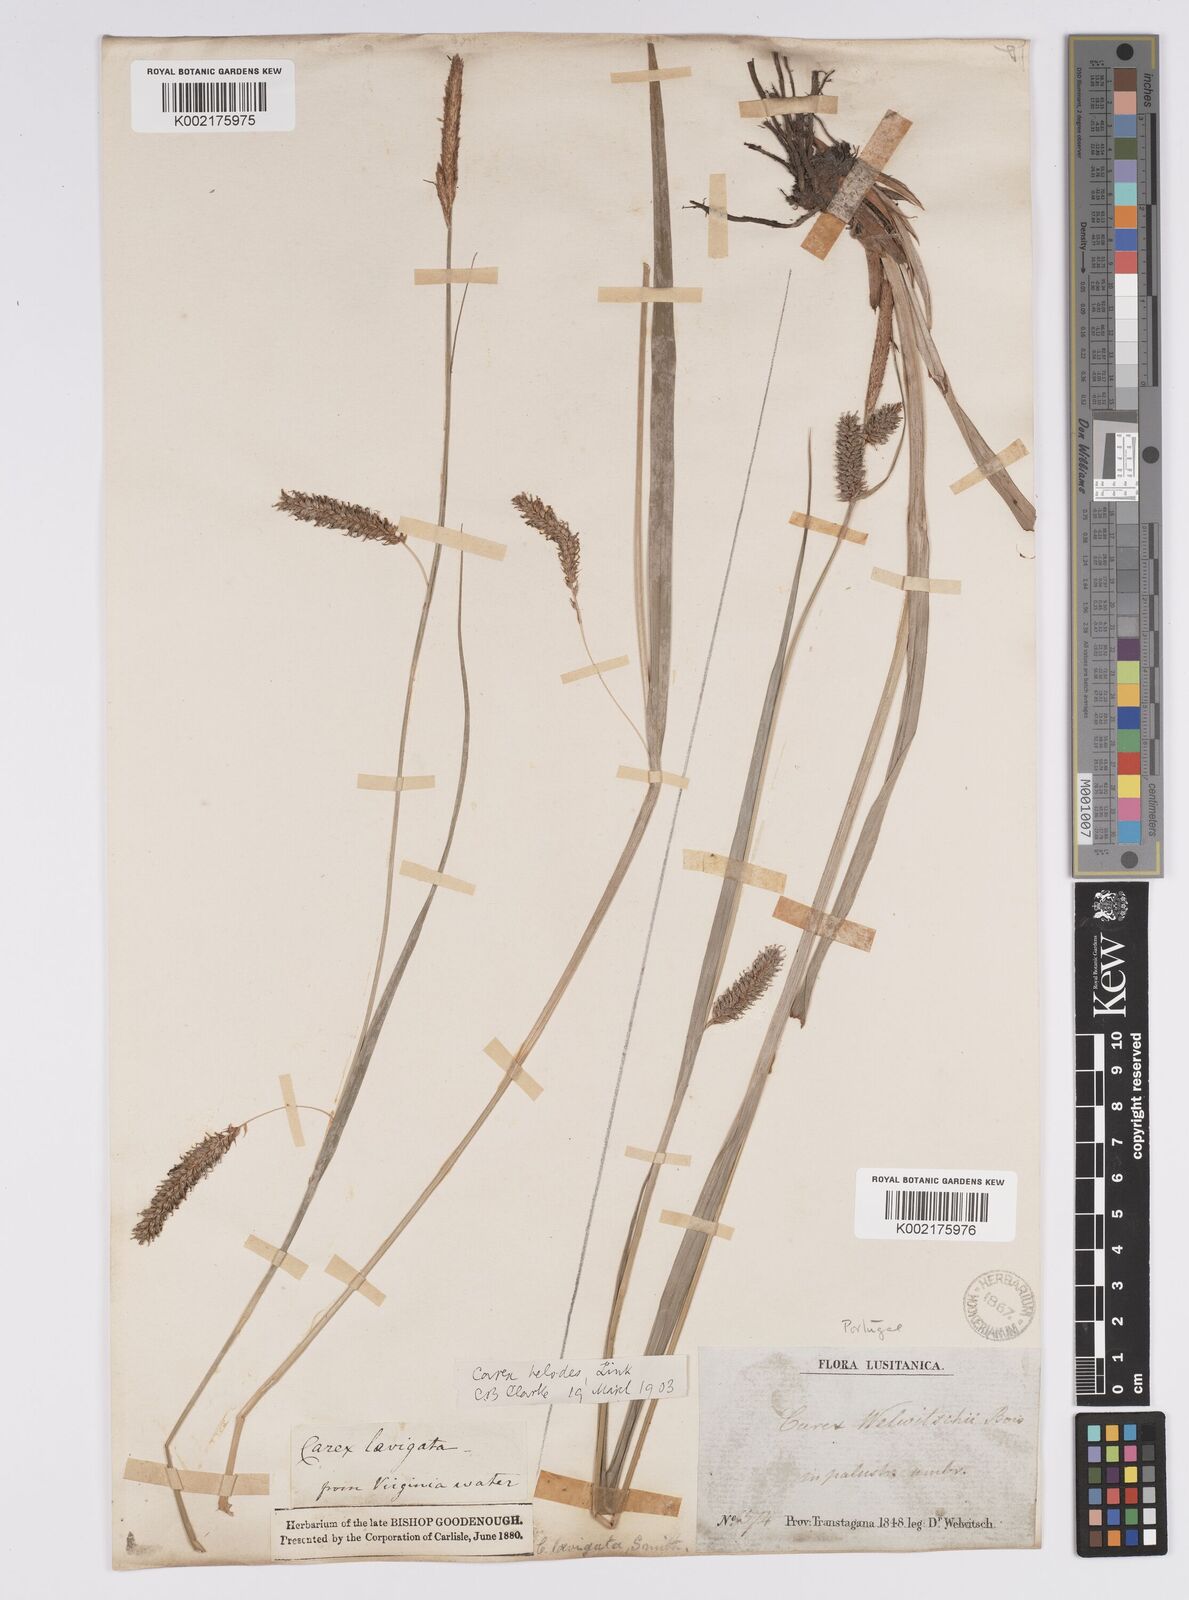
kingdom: Plantae
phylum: Tracheophyta
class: Liliopsida
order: Poales
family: Cyperaceae
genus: Carex
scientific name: Carex laevigata
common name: Smooth-stalked sedge
